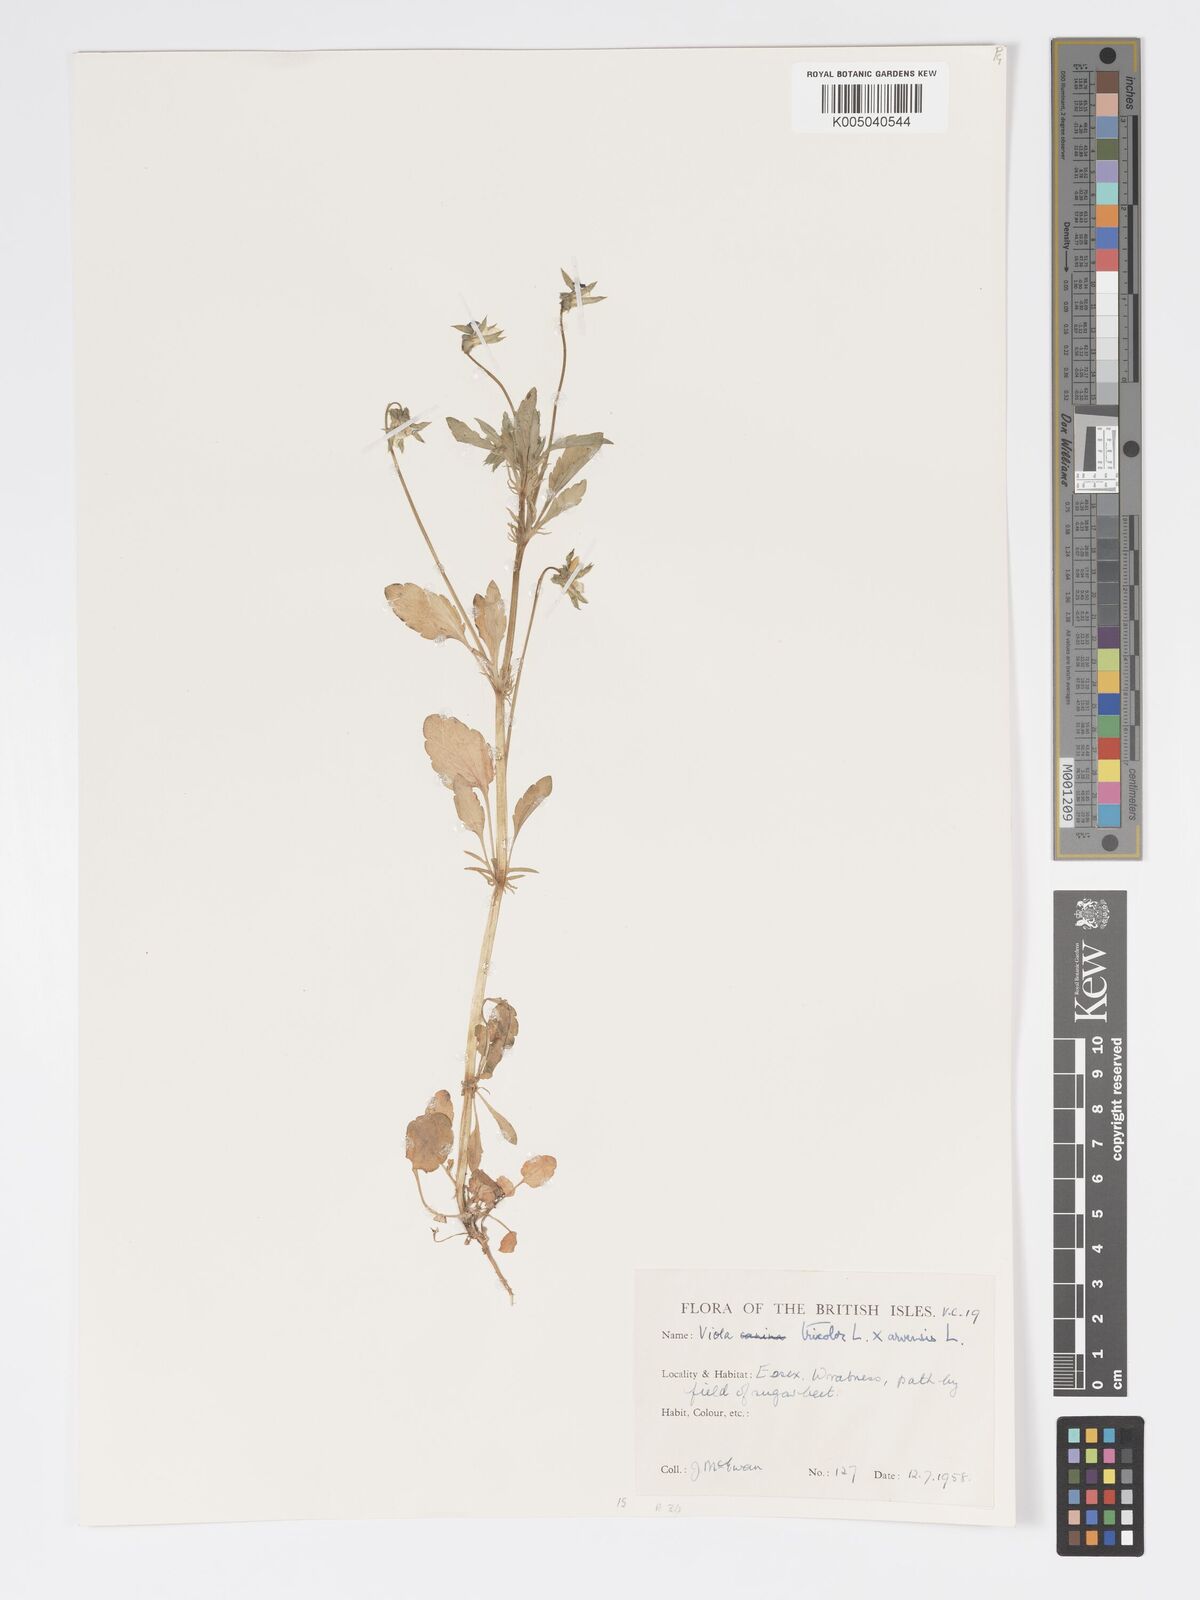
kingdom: Plantae
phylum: Tracheophyta
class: Magnoliopsida
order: Malpighiales
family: Violaceae
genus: Viola
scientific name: Viola tricolor
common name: Pansy
